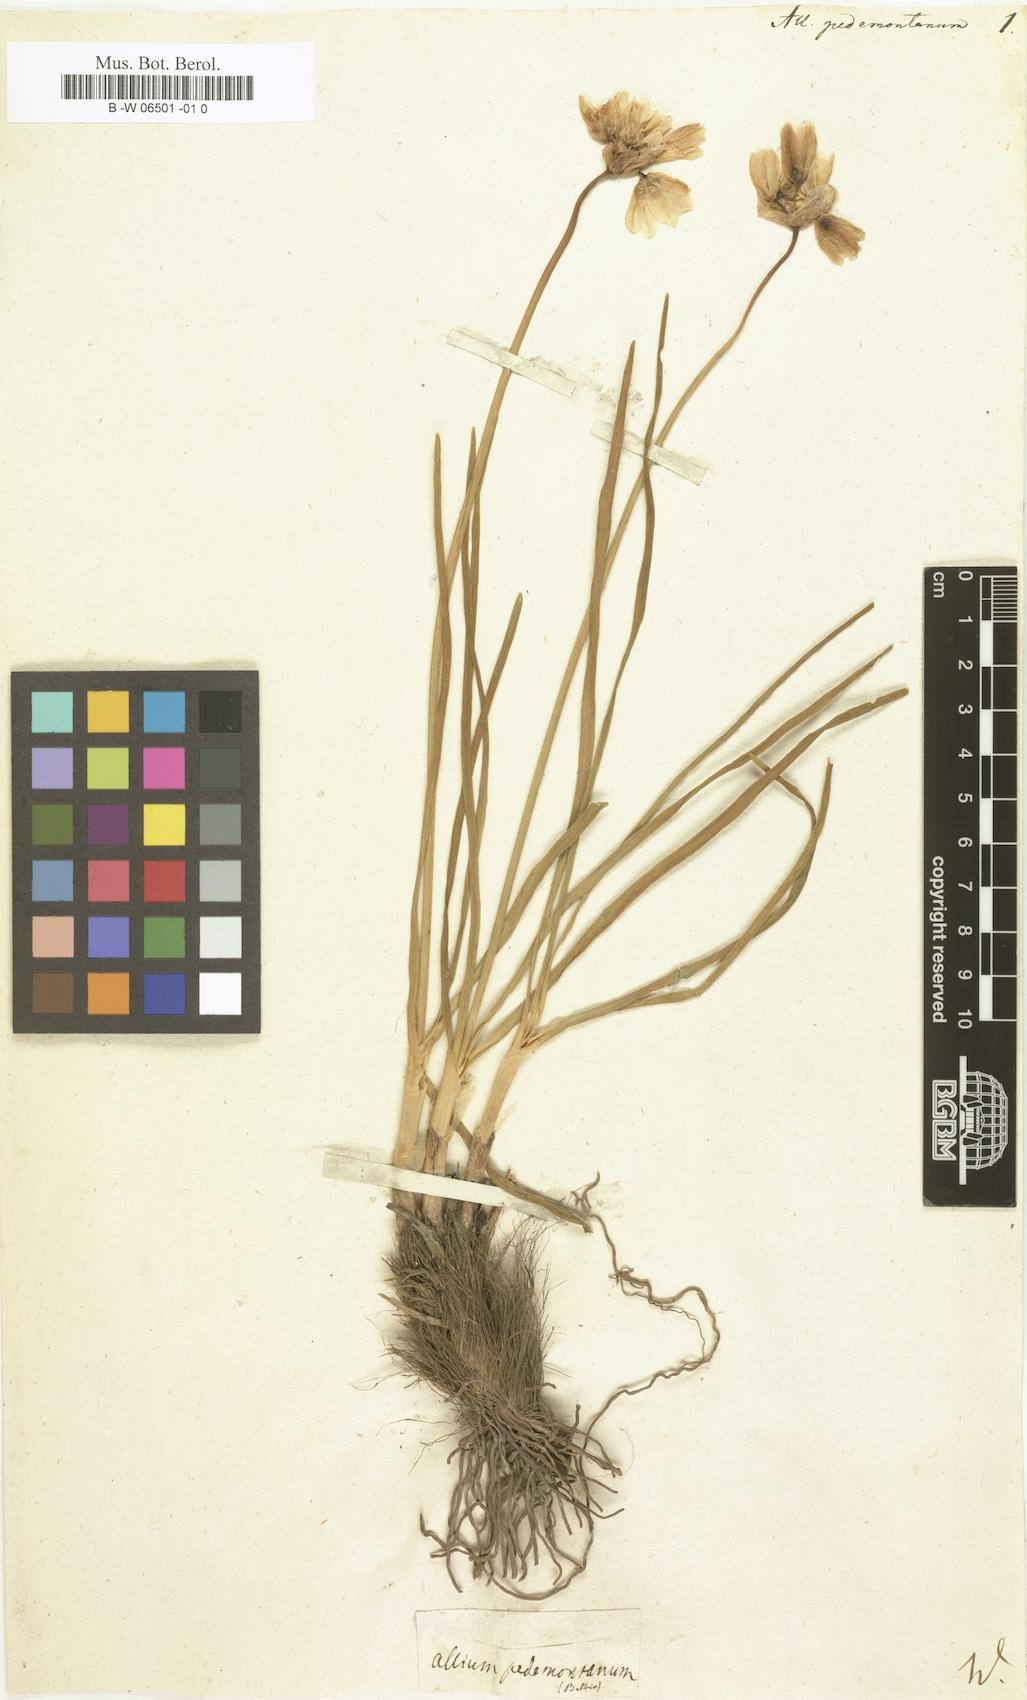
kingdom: Plantae
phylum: Tracheophyta
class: Liliopsida
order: Asparagales
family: Amaryllidaceae
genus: Allium
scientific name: Allium narcissiflorum
